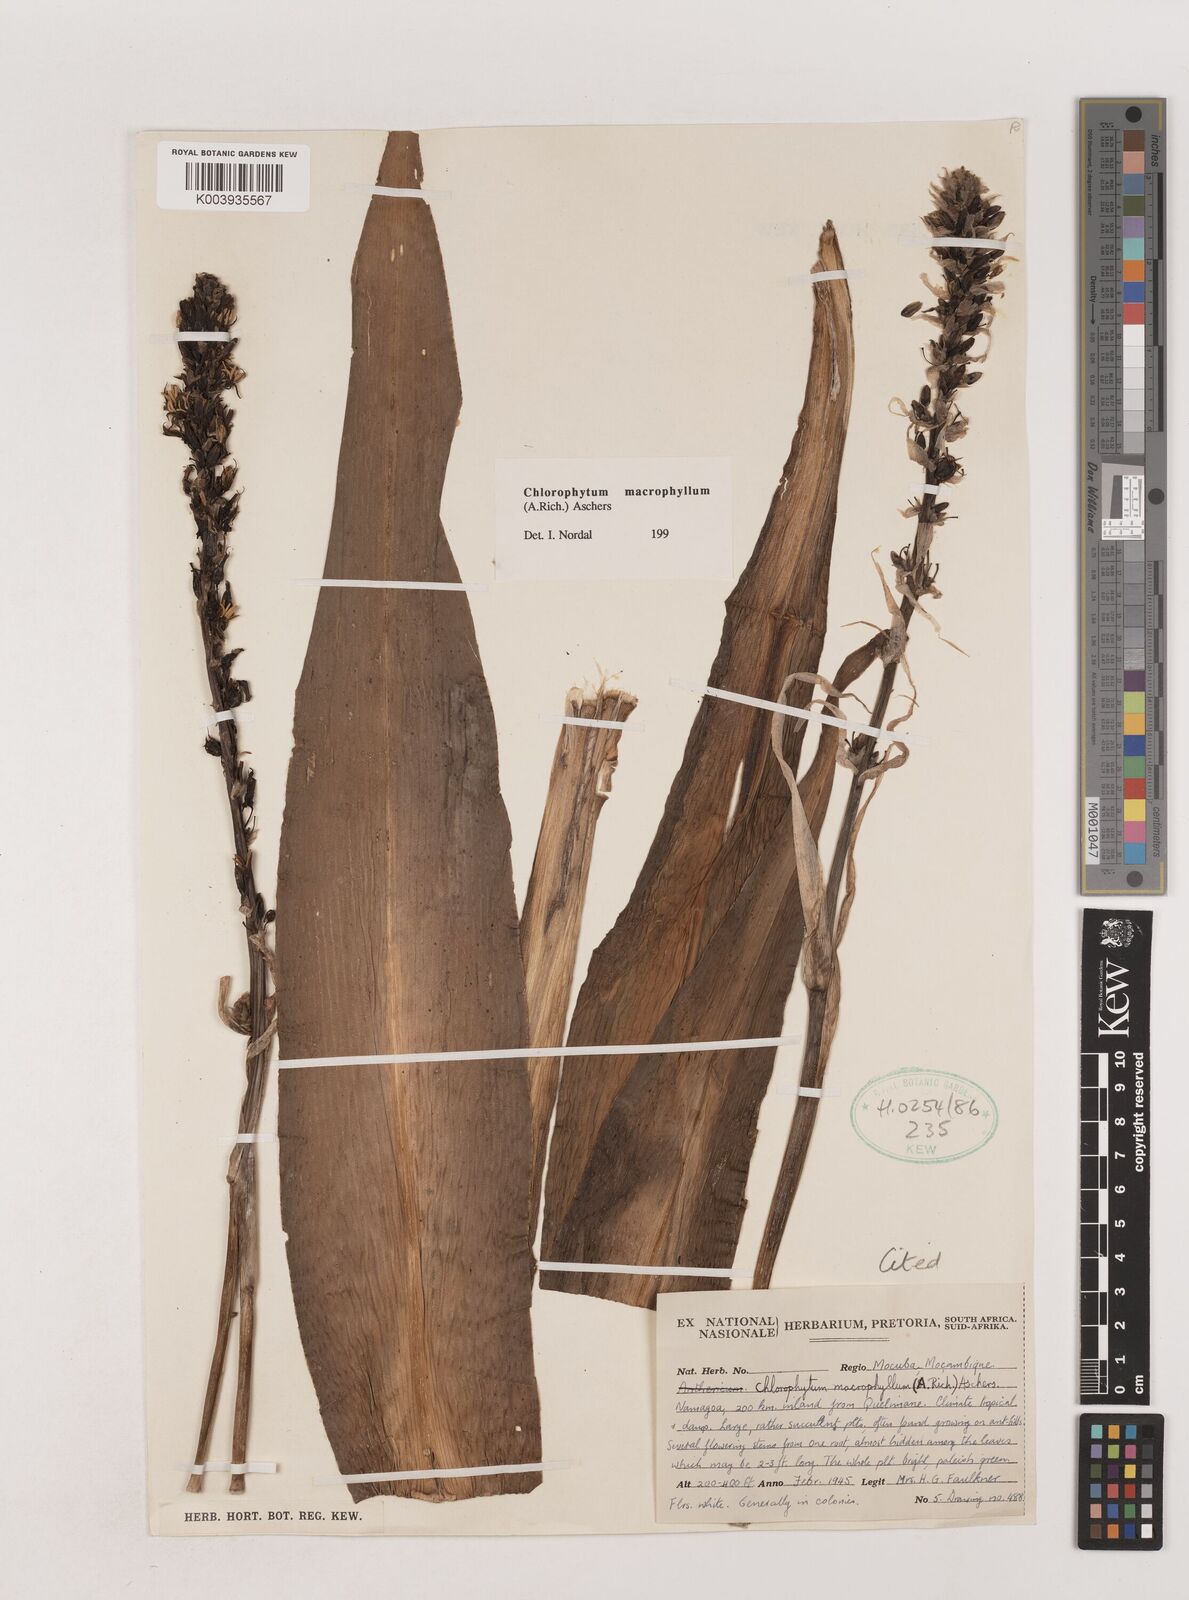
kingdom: Plantae
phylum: Tracheophyta
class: Liliopsida
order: Asparagales
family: Asparagaceae
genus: Chlorophytum
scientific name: Chlorophytum macrophyllum
